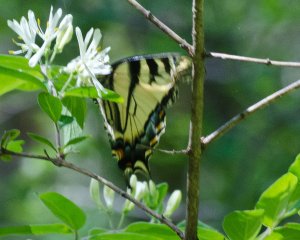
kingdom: Animalia
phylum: Arthropoda
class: Insecta
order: Lepidoptera
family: Papilionidae
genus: Pterourus
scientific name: Pterourus canadensis
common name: Canadian Tiger Swallowtail
